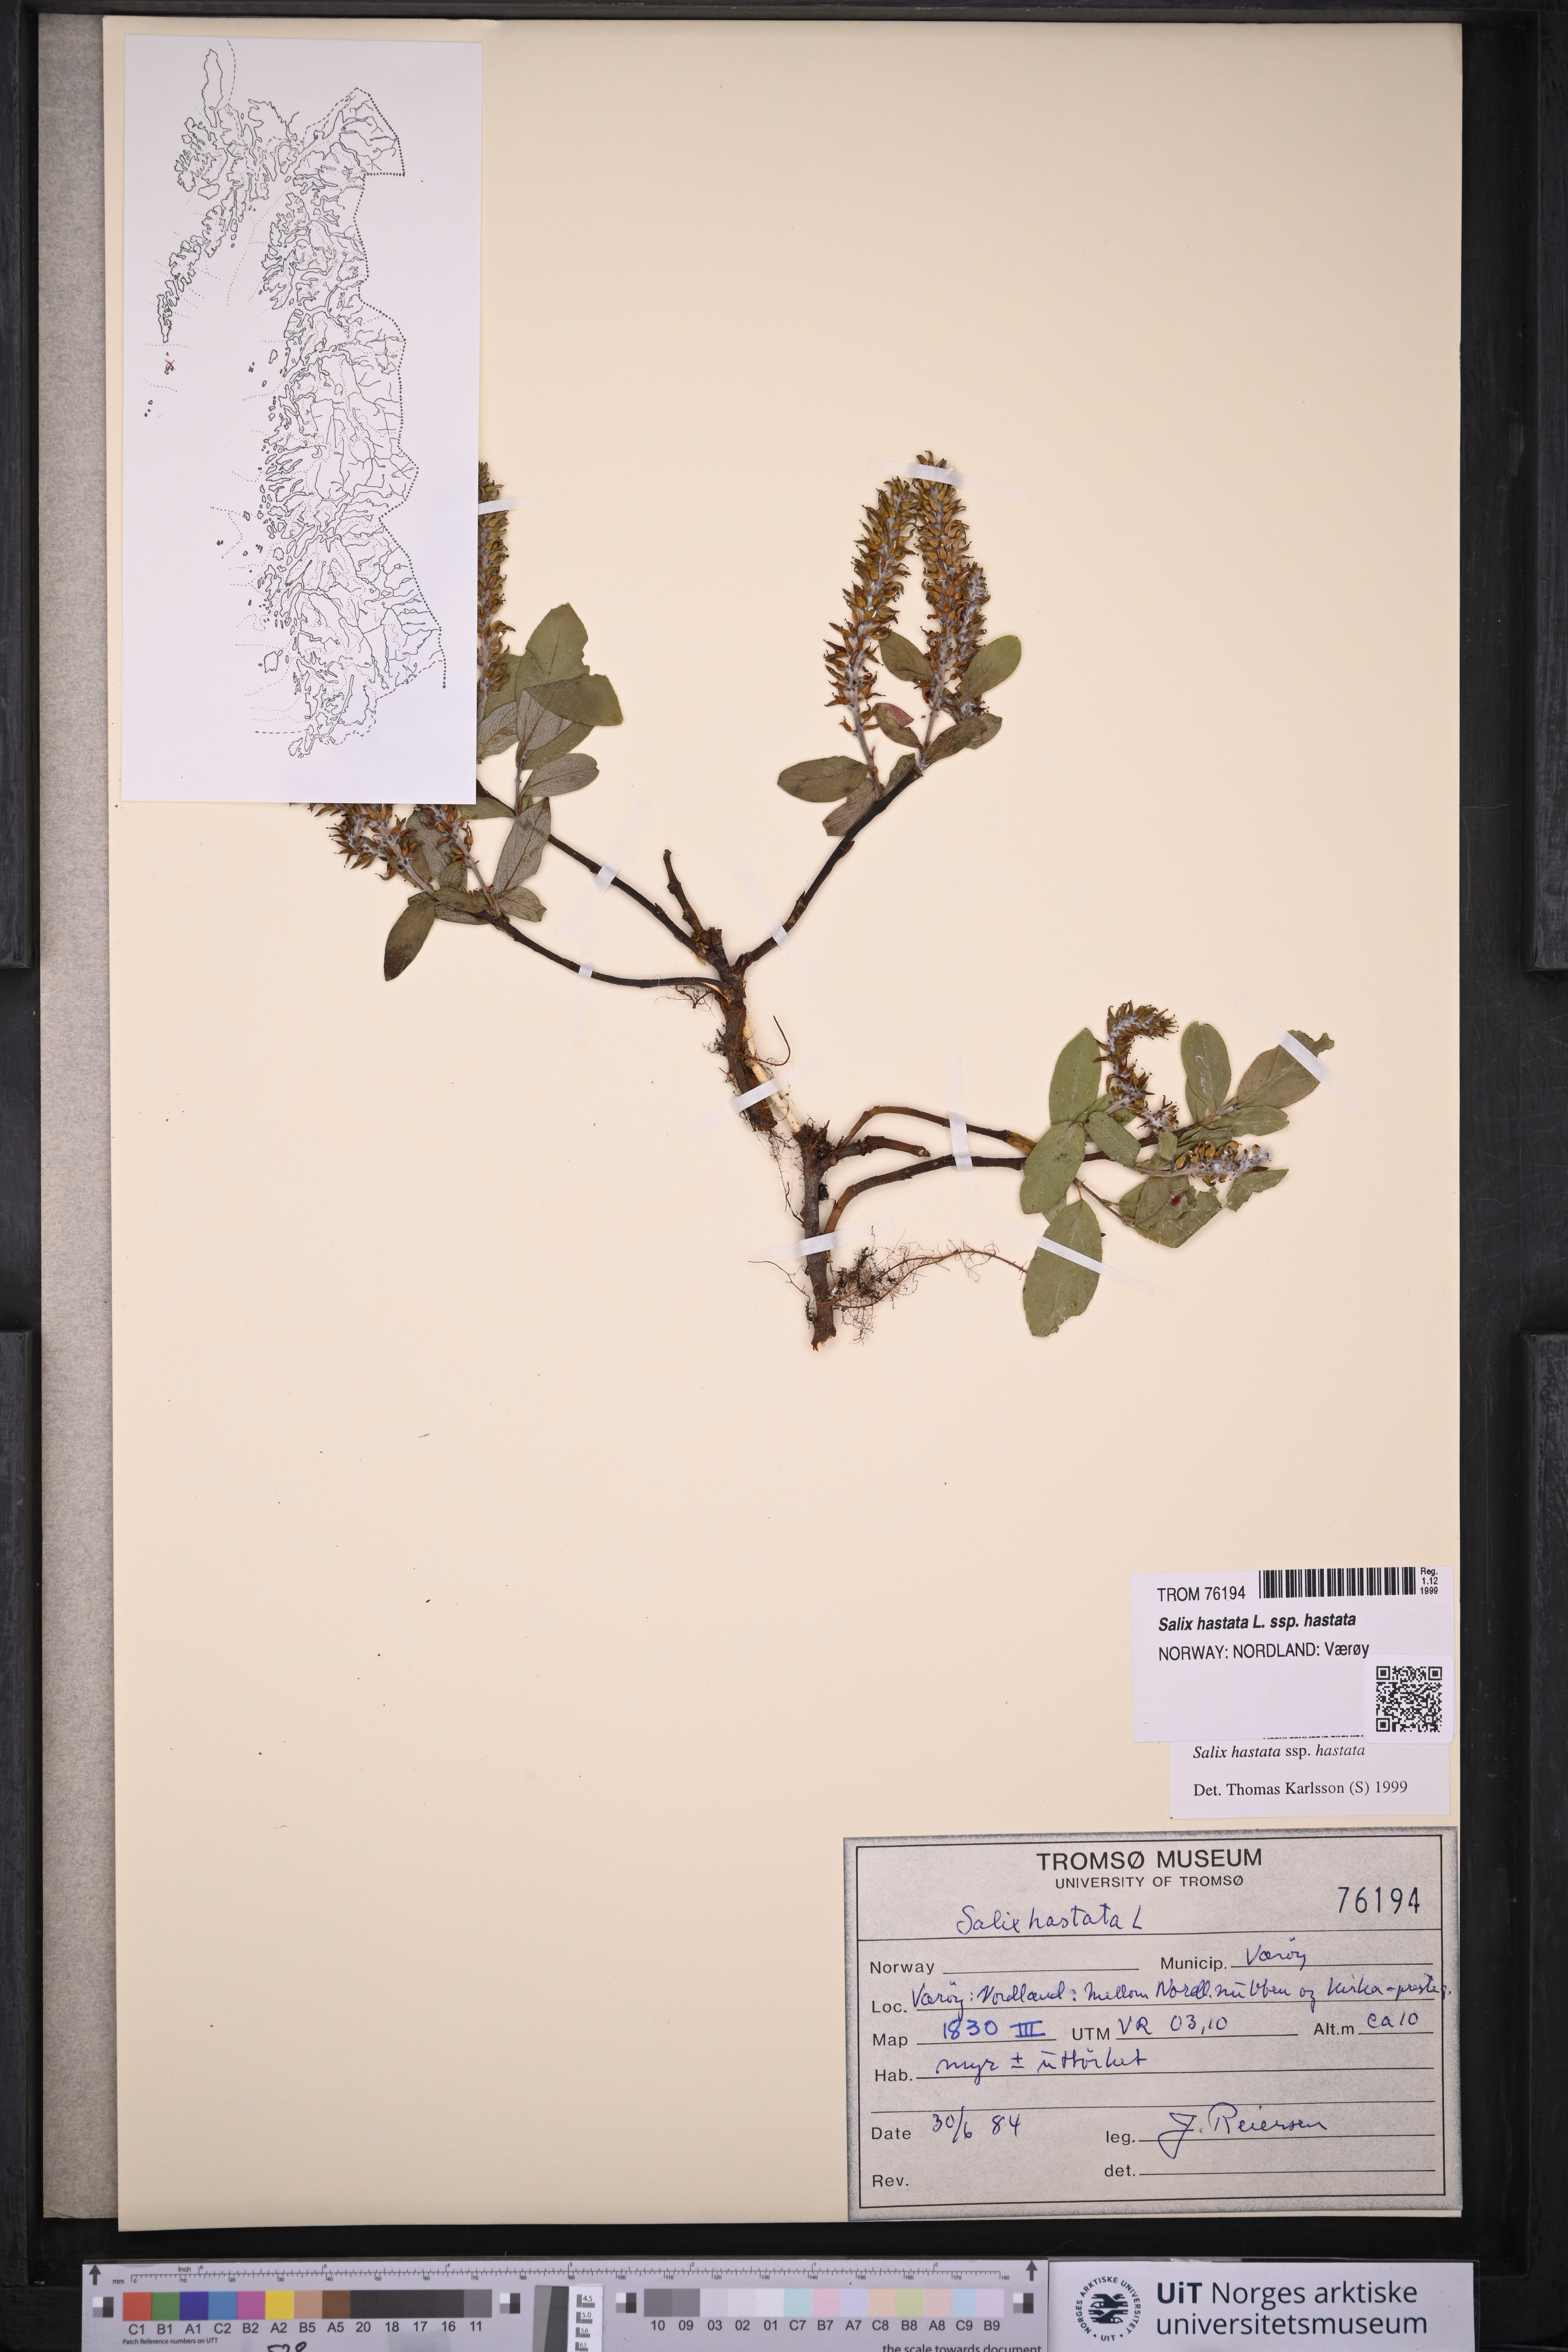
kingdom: Plantae
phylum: Tracheophyta
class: Magnoliopsida
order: Malpighiales
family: Salicaceae
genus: Salix
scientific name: Salix hastata
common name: Halberd willow
